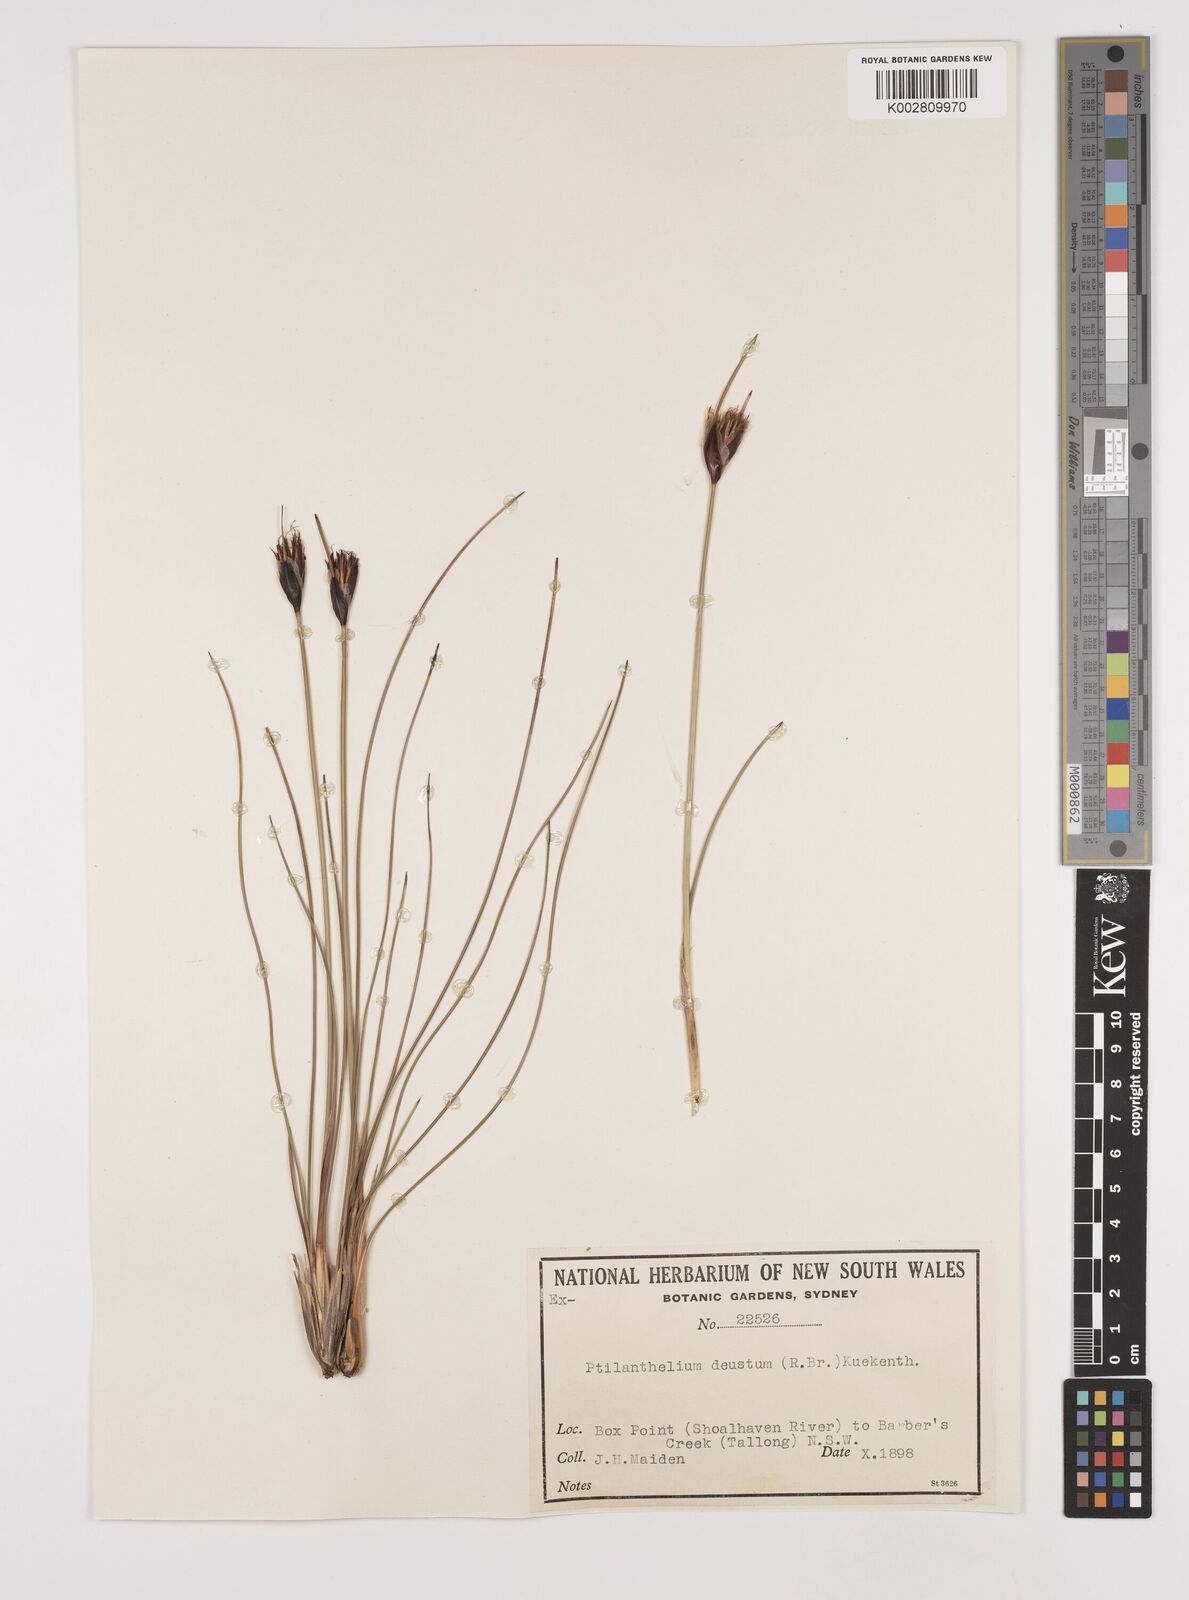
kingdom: Plantae
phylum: Tracheophyta
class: Liliopsida
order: Poales
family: Cyperaceae
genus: Ptilothrix
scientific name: Ptilothrix deusta
